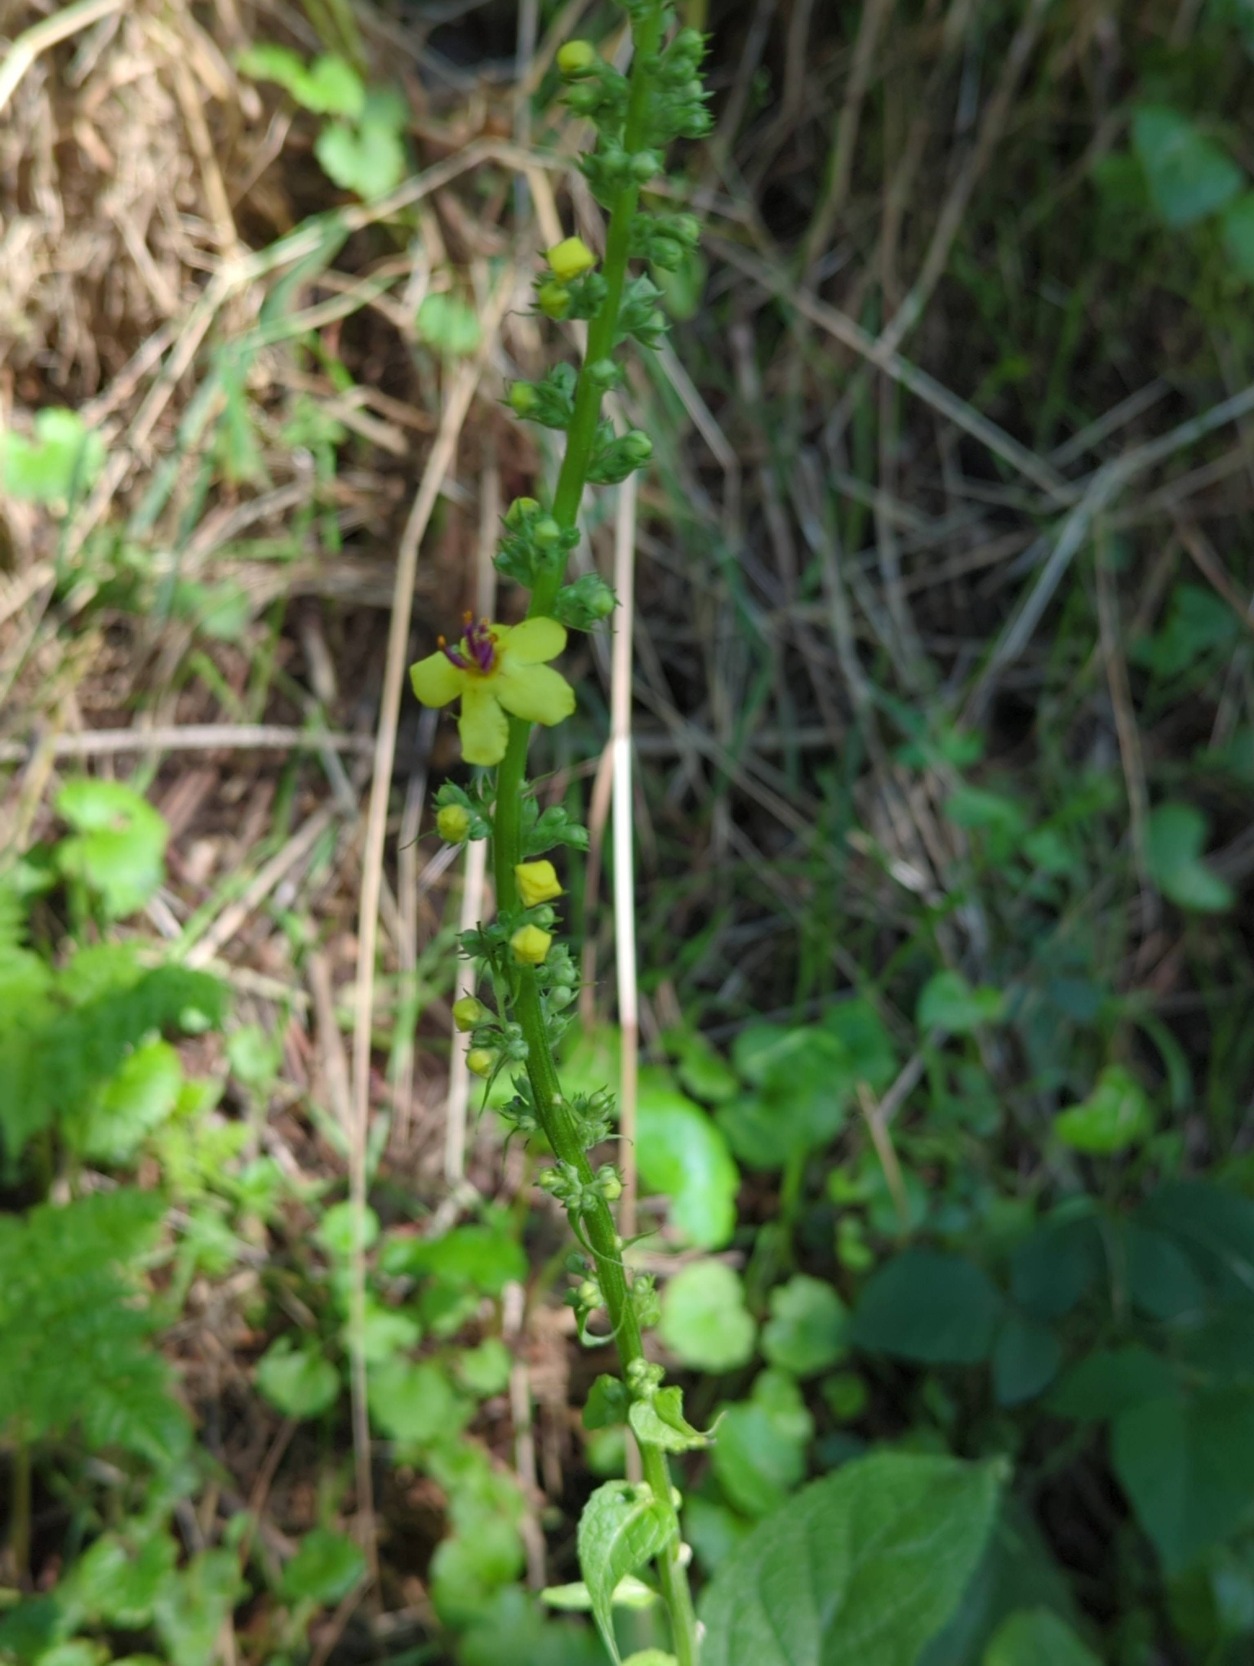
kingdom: Plantae
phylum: Tracheophyta
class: Magnoliopsida
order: Lamiales
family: Scrophulariaceae
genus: Verbascum
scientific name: Verbascum nigrum
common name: Mørk kongelys
